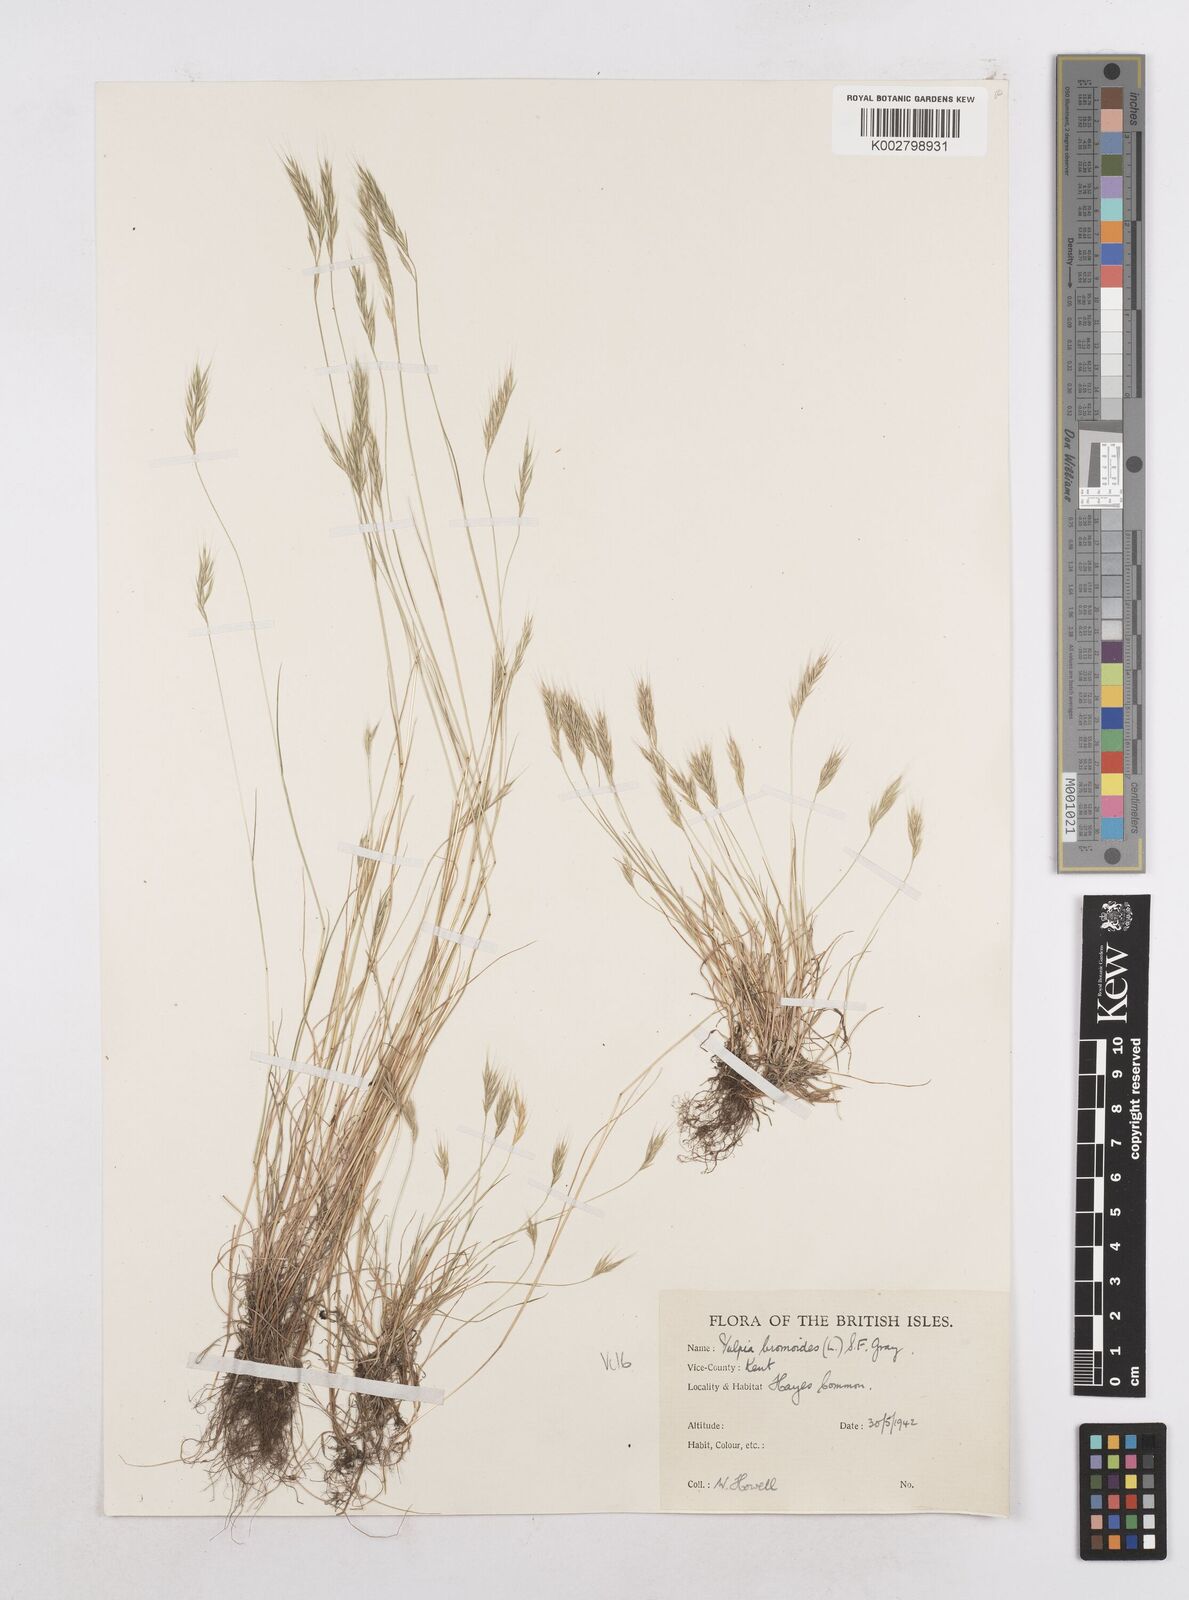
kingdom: Plantae
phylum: Tracheophyta
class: Liliopsida
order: Poales
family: Poaceae
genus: Festuca
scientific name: Festuca bromoides
